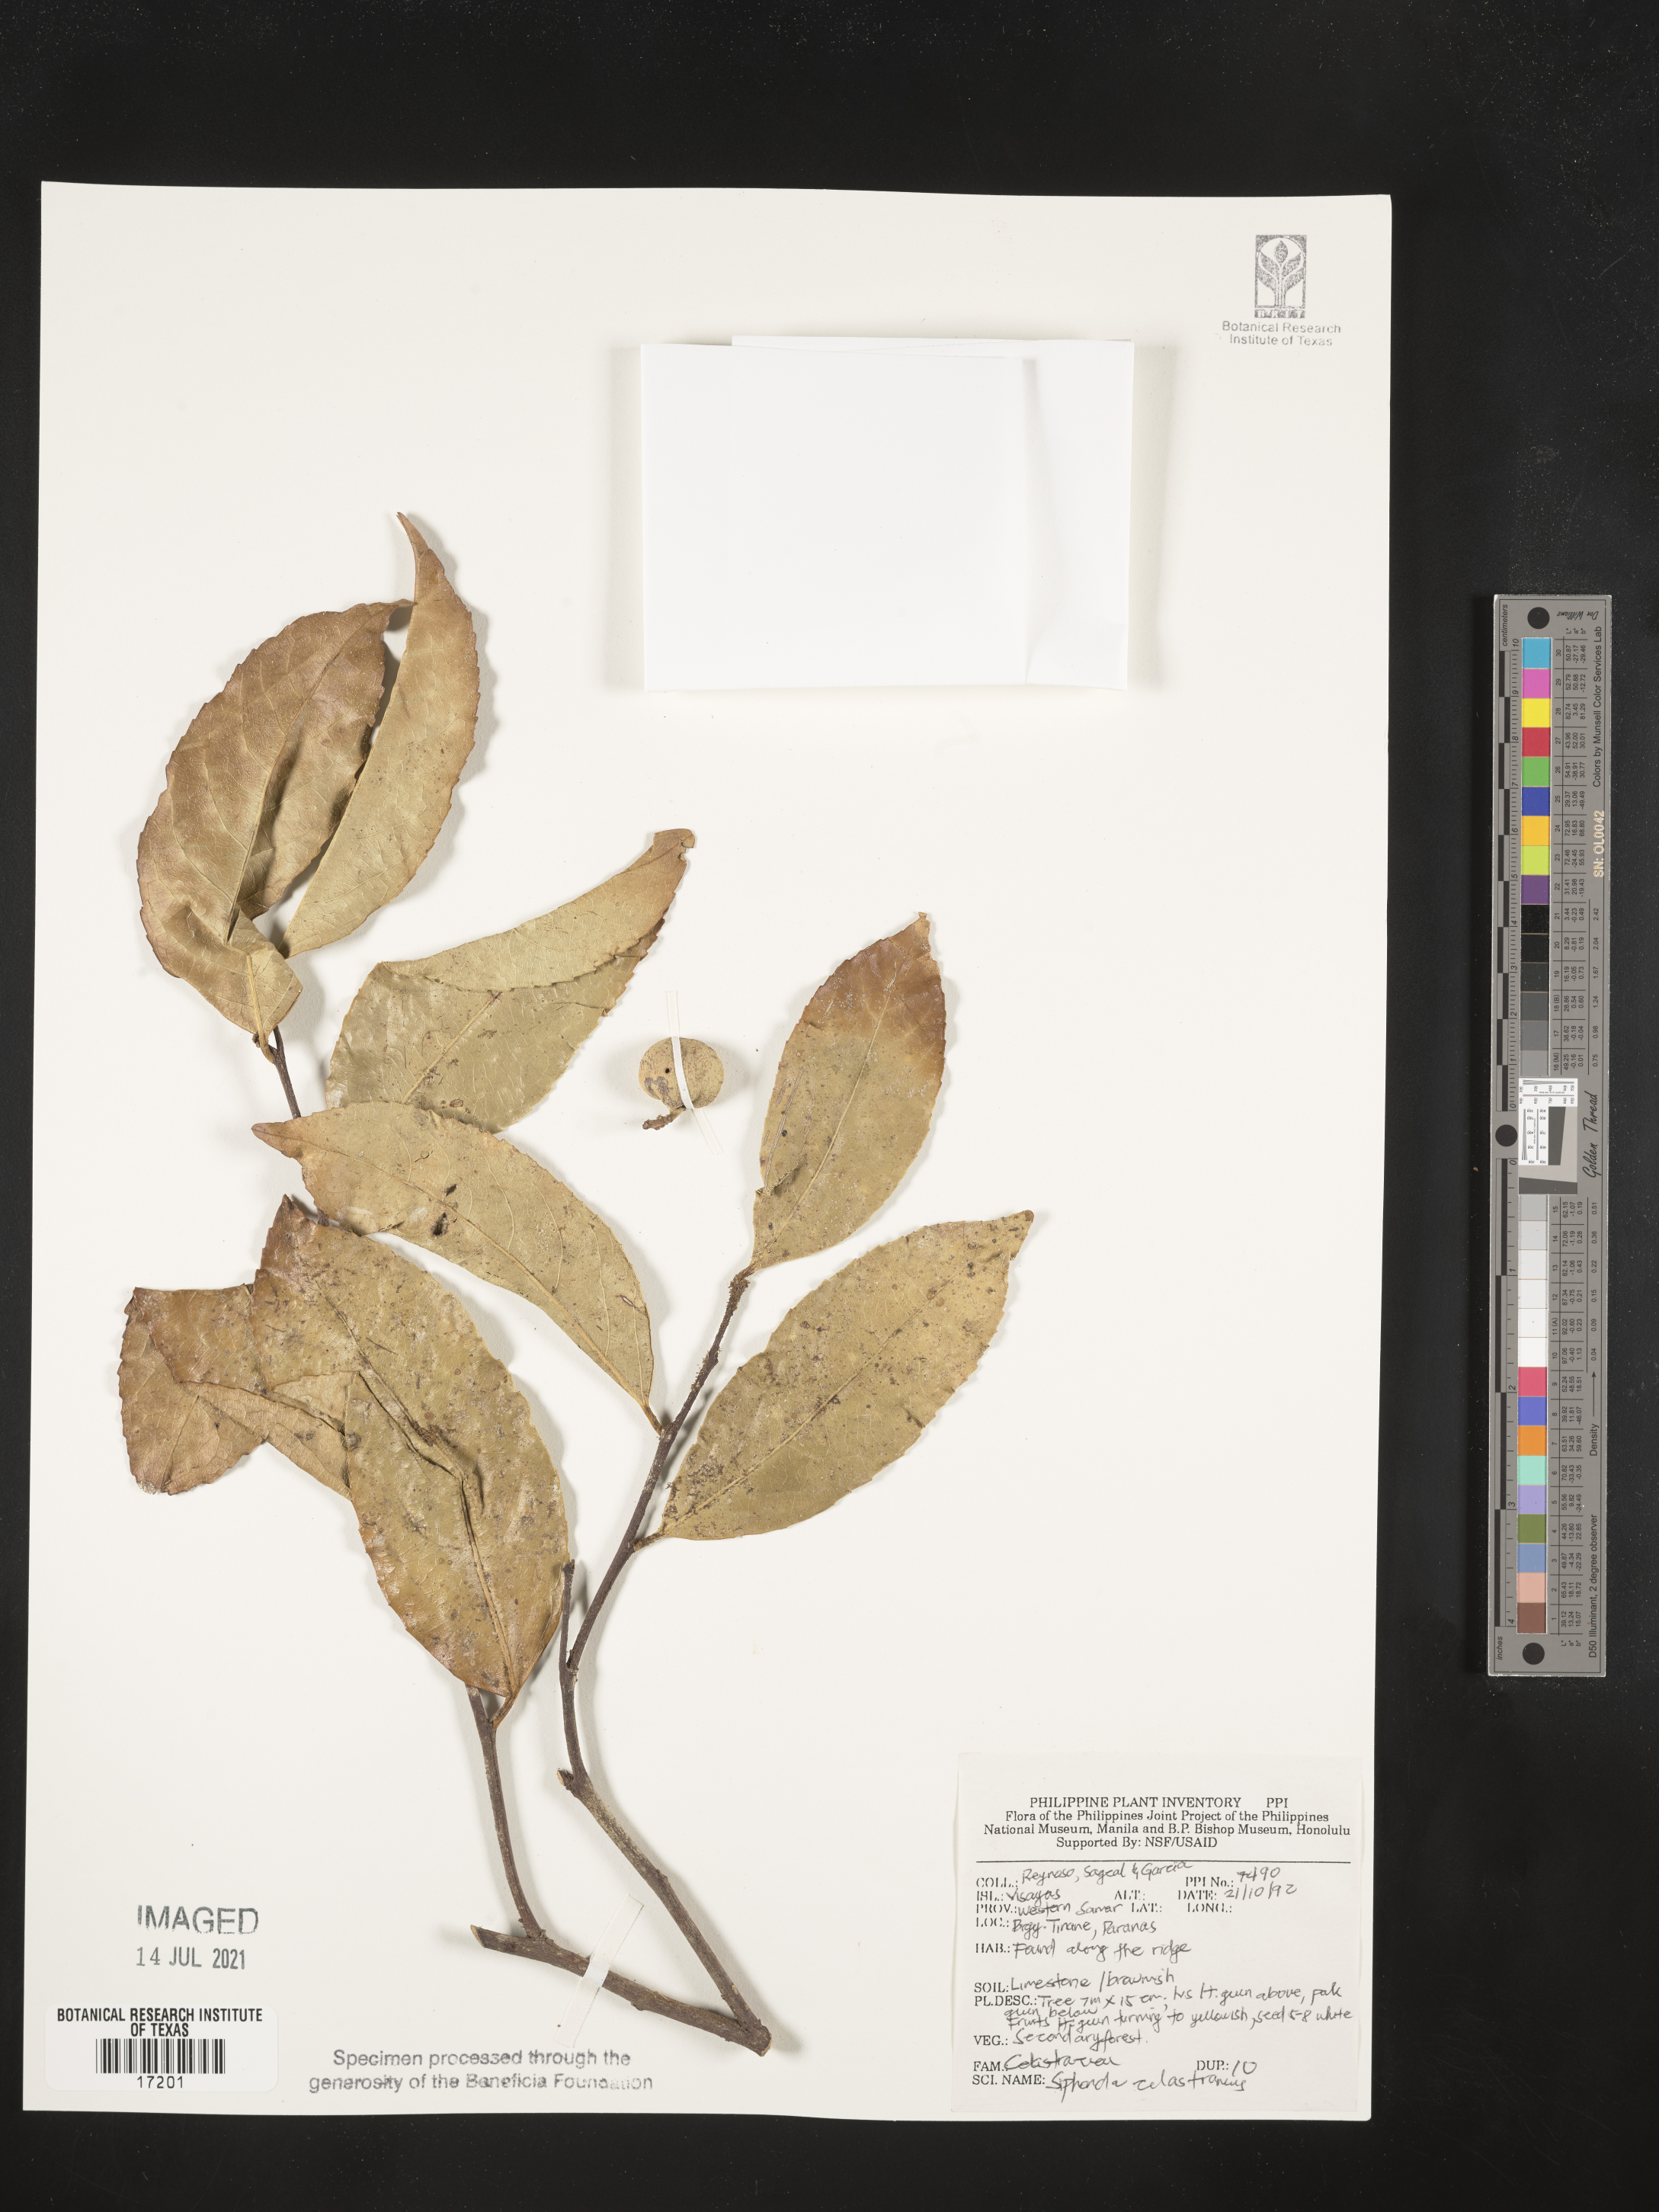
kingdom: Plantae
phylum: Tracheophyta
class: Magnoliopsida
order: Celastrales
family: Celastraceae
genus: Siphonodon
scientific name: Siphonodon celastrineus
